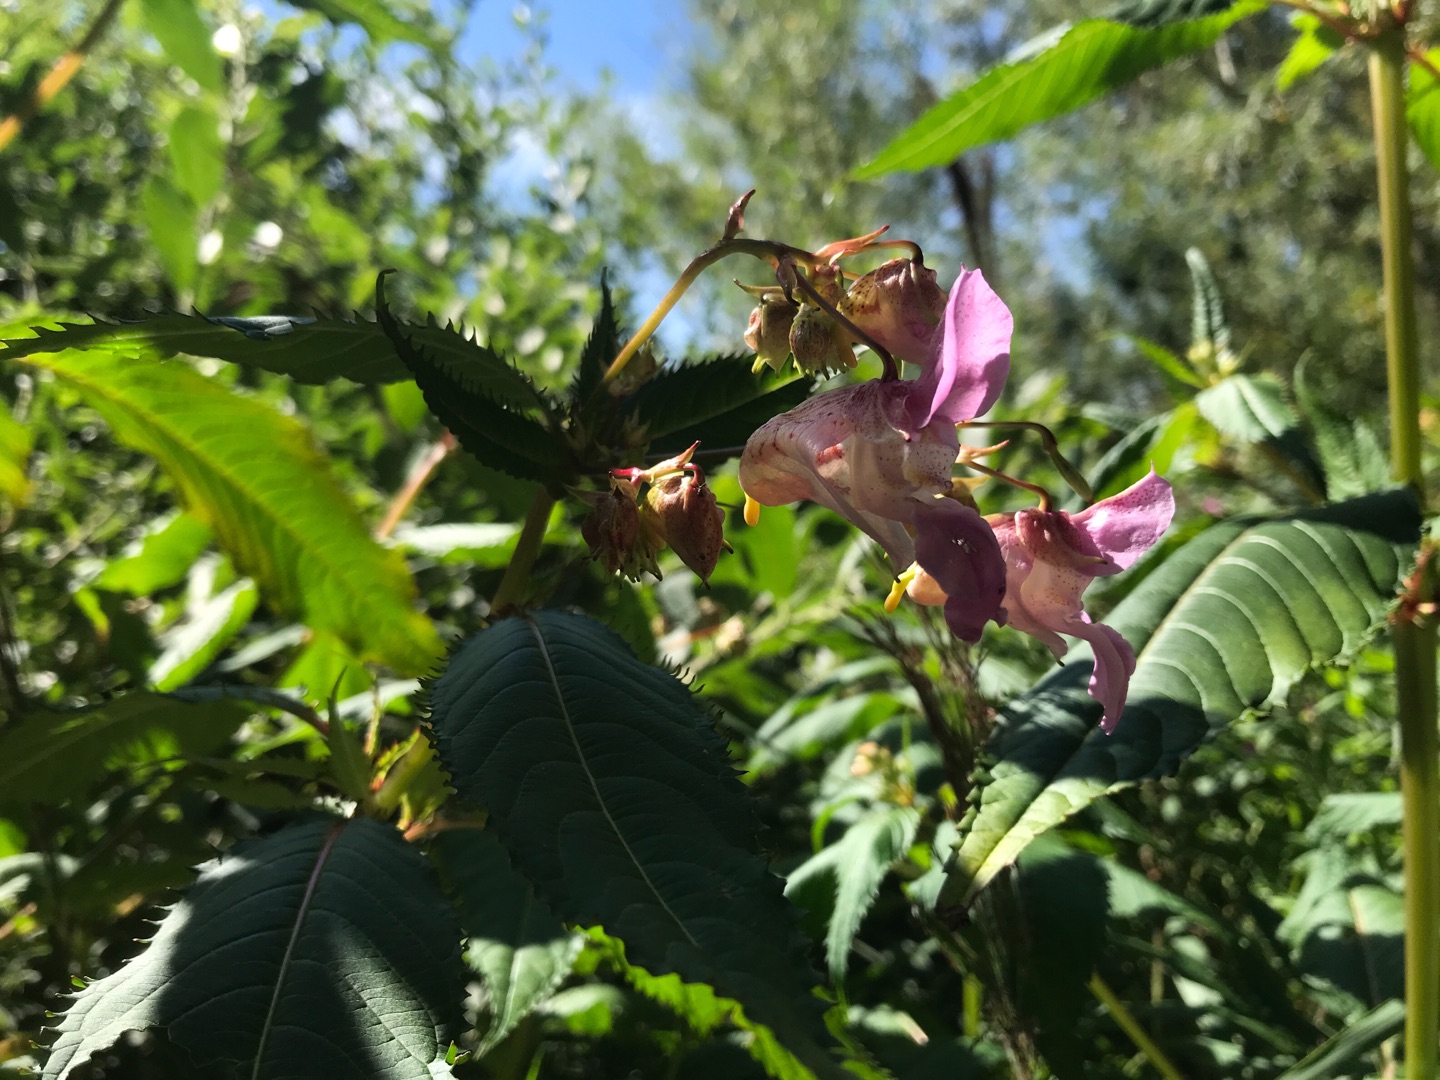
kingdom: Plantae
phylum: Tracheophyta
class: Magnoliopsida
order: Ericales
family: Balsaminaceae
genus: Impatiens
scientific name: Impatiens glandulifera
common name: Kæmpe-balsamin
